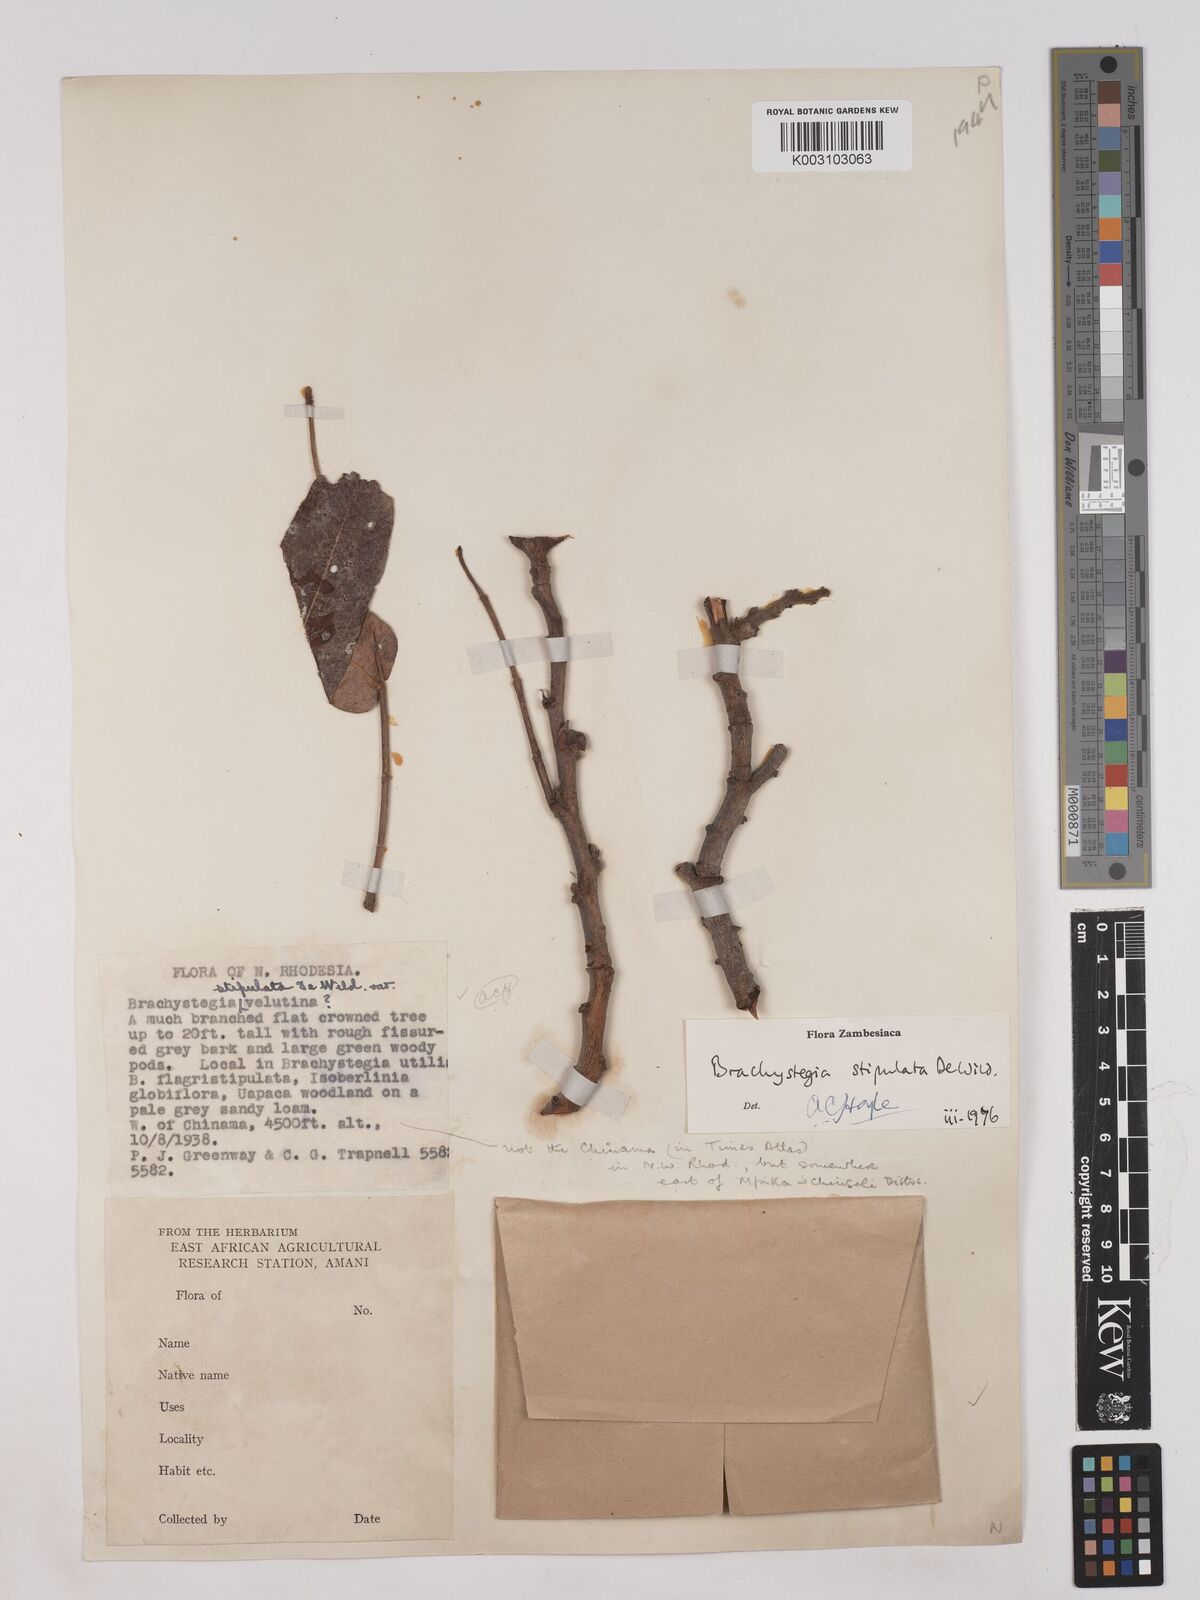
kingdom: Plantae
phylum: Tracheophyta
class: Magnoliopsida
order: Fabales
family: Fabaceae
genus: Brachystegia
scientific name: Brachystegia stipulata
